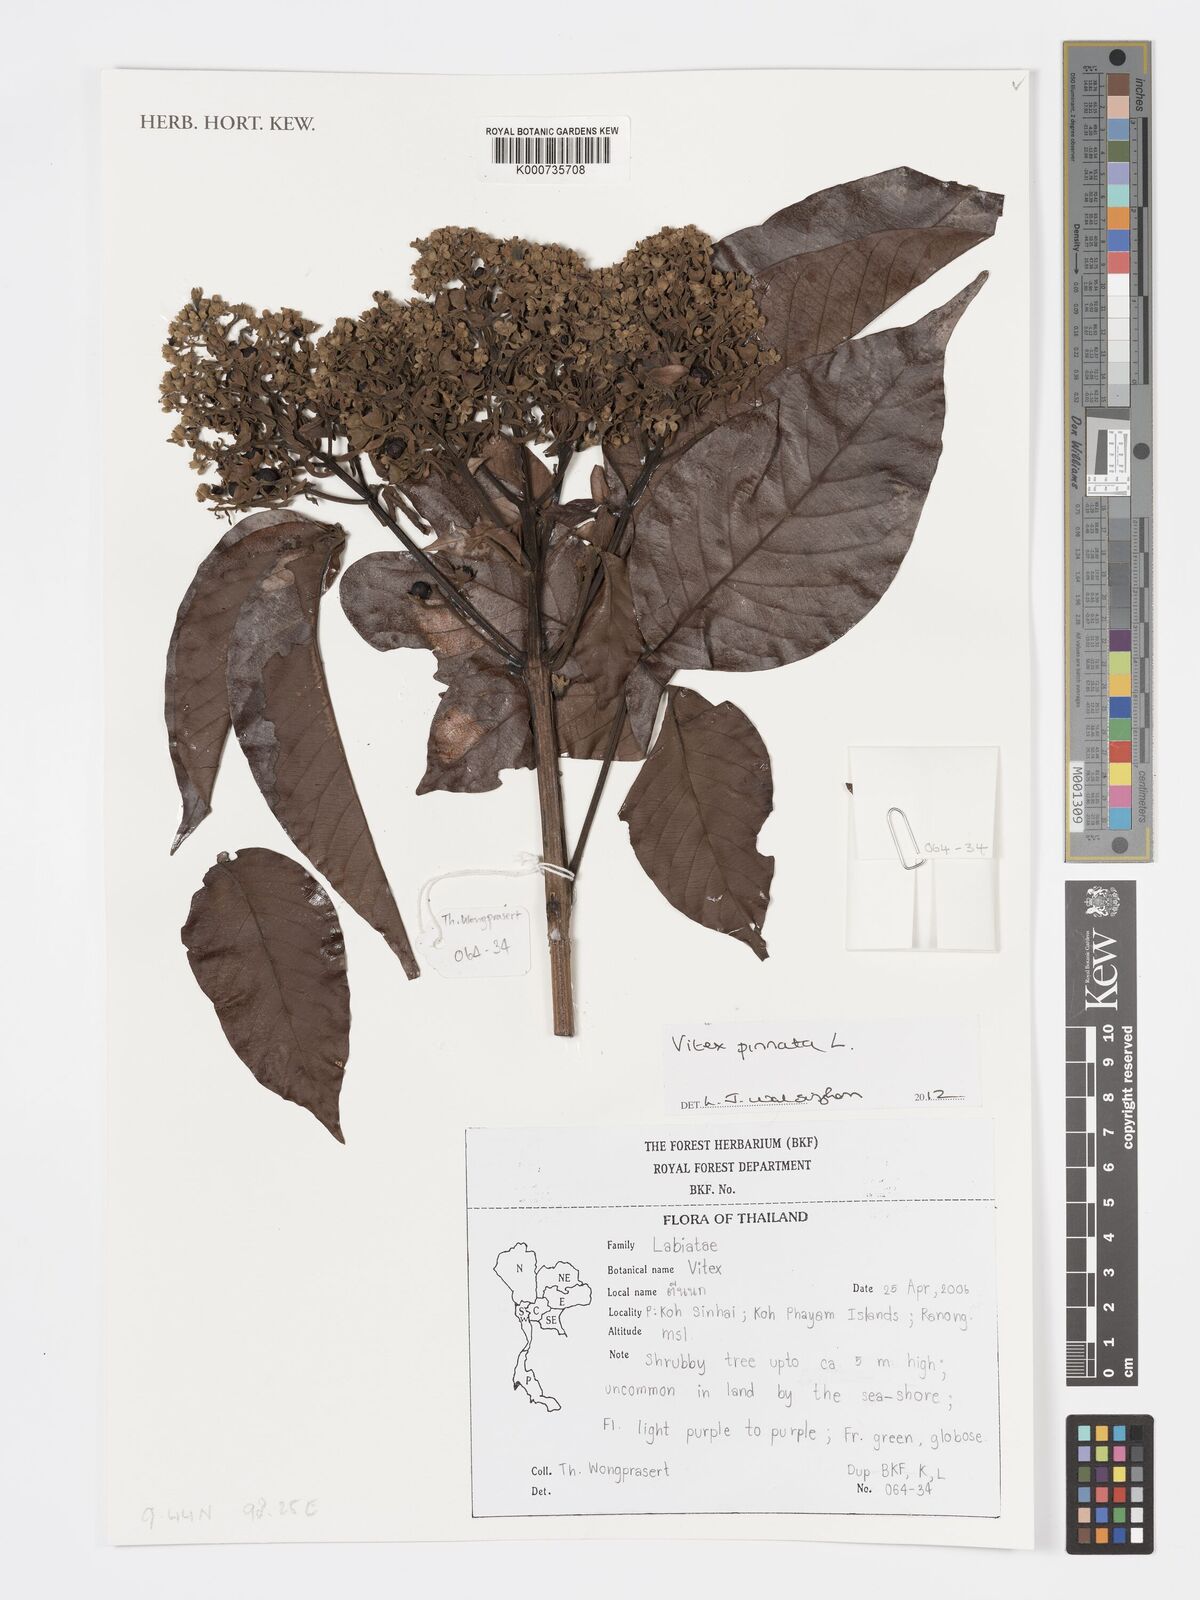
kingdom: Plantae
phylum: Tracheophyta
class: Magnoliopsida
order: Lamiales
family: Lamiaceae
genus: Vitex
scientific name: Vitex pinnata
